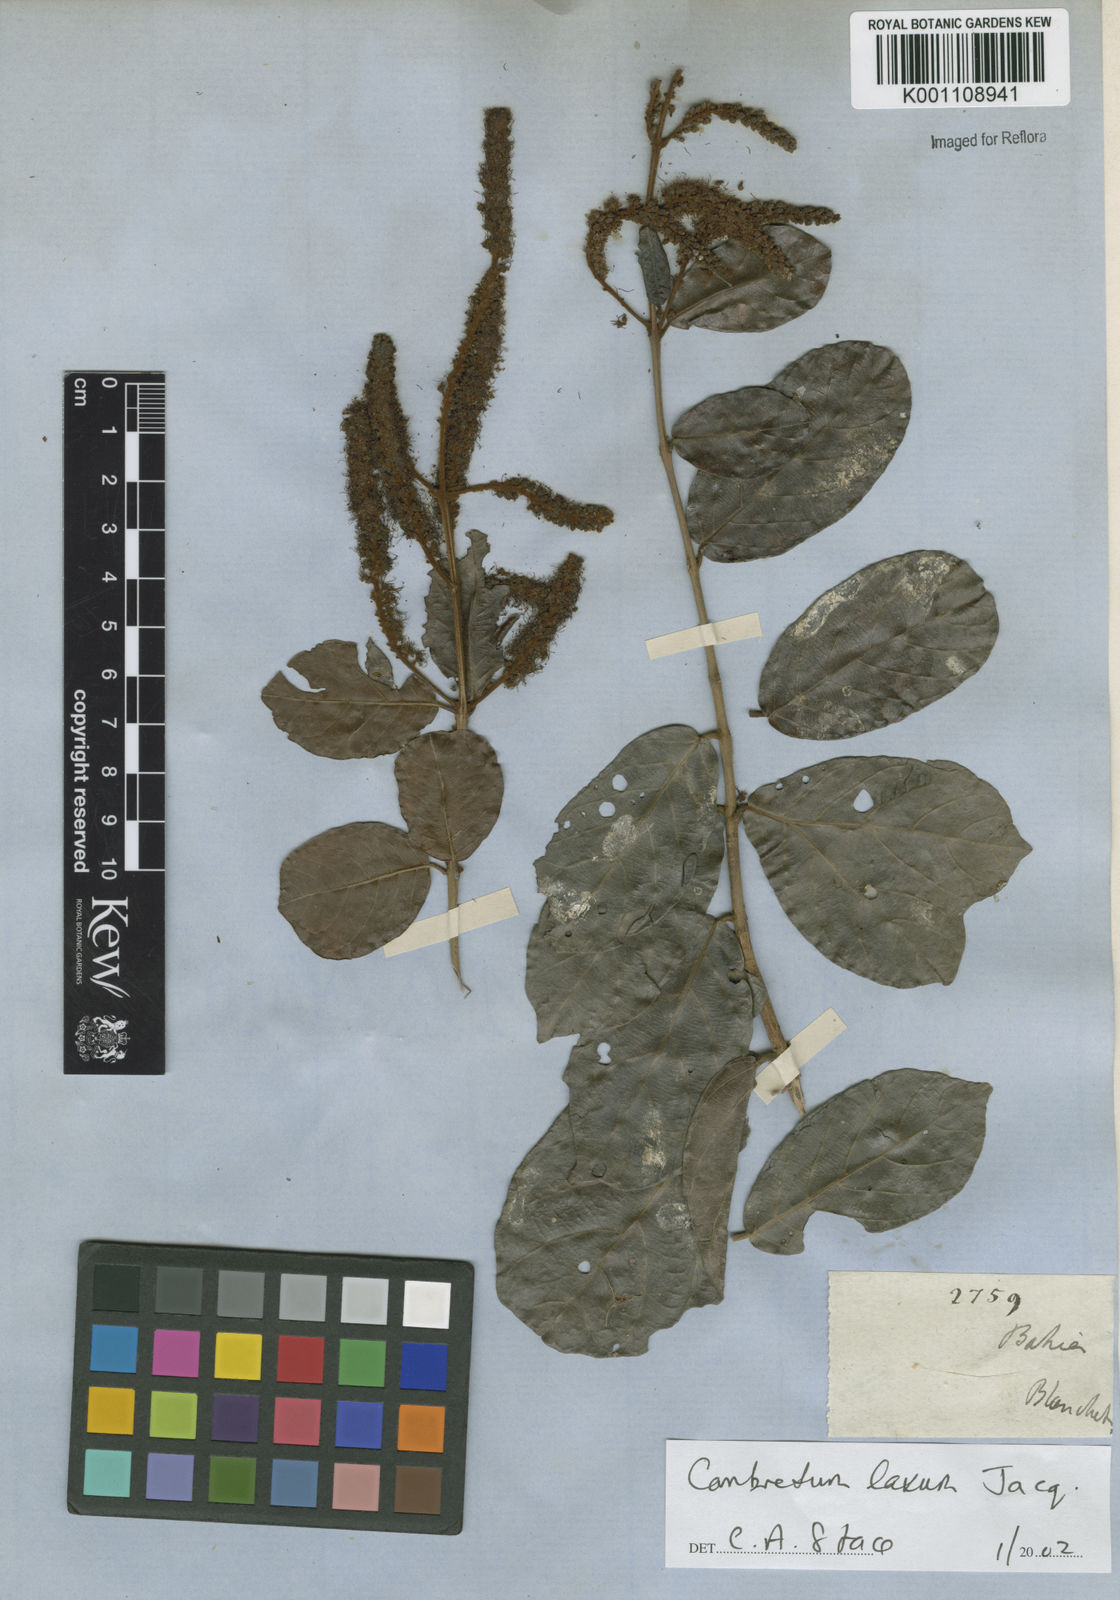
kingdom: Plantae
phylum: Tracheophyta
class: Magnoliopsida
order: Myrtales
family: Combretaceae
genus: Combretum
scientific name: Combretum laxum
